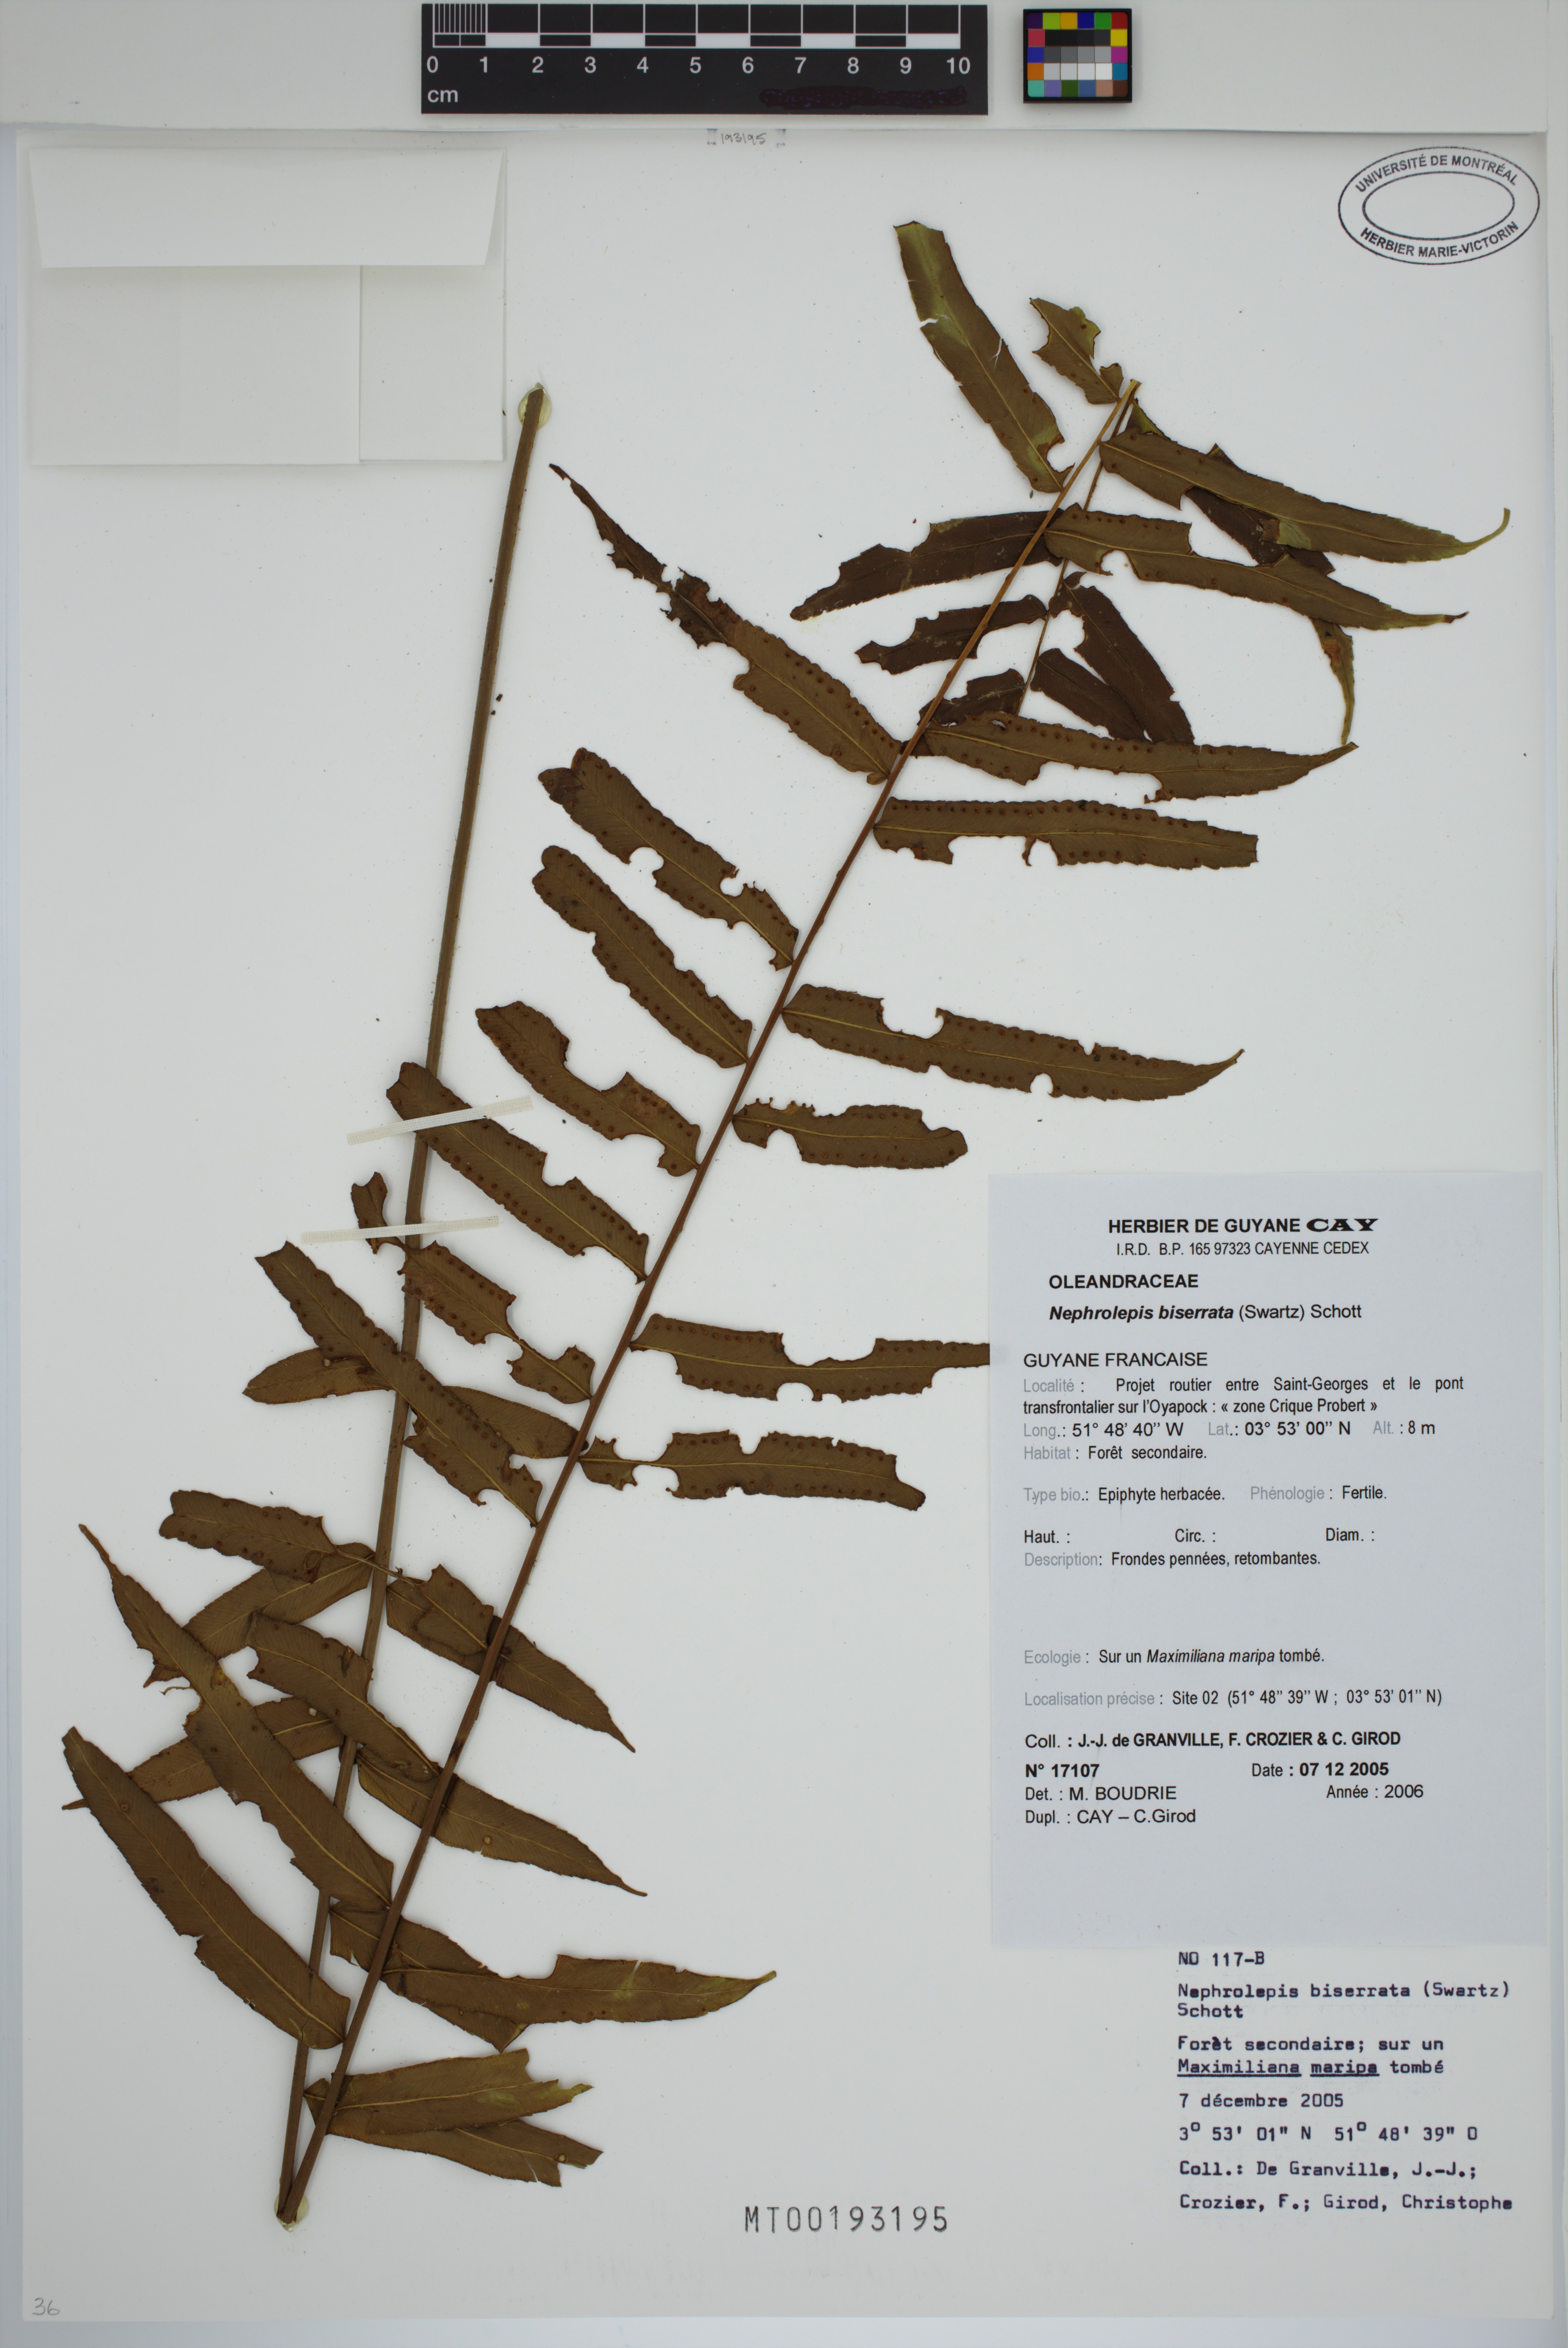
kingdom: Plantae
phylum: Tracheophyta
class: Polypodiopsida
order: Polypodiales
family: Nephrolepidaceae
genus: Nephrolepis
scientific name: Nephrolepis biserrata
